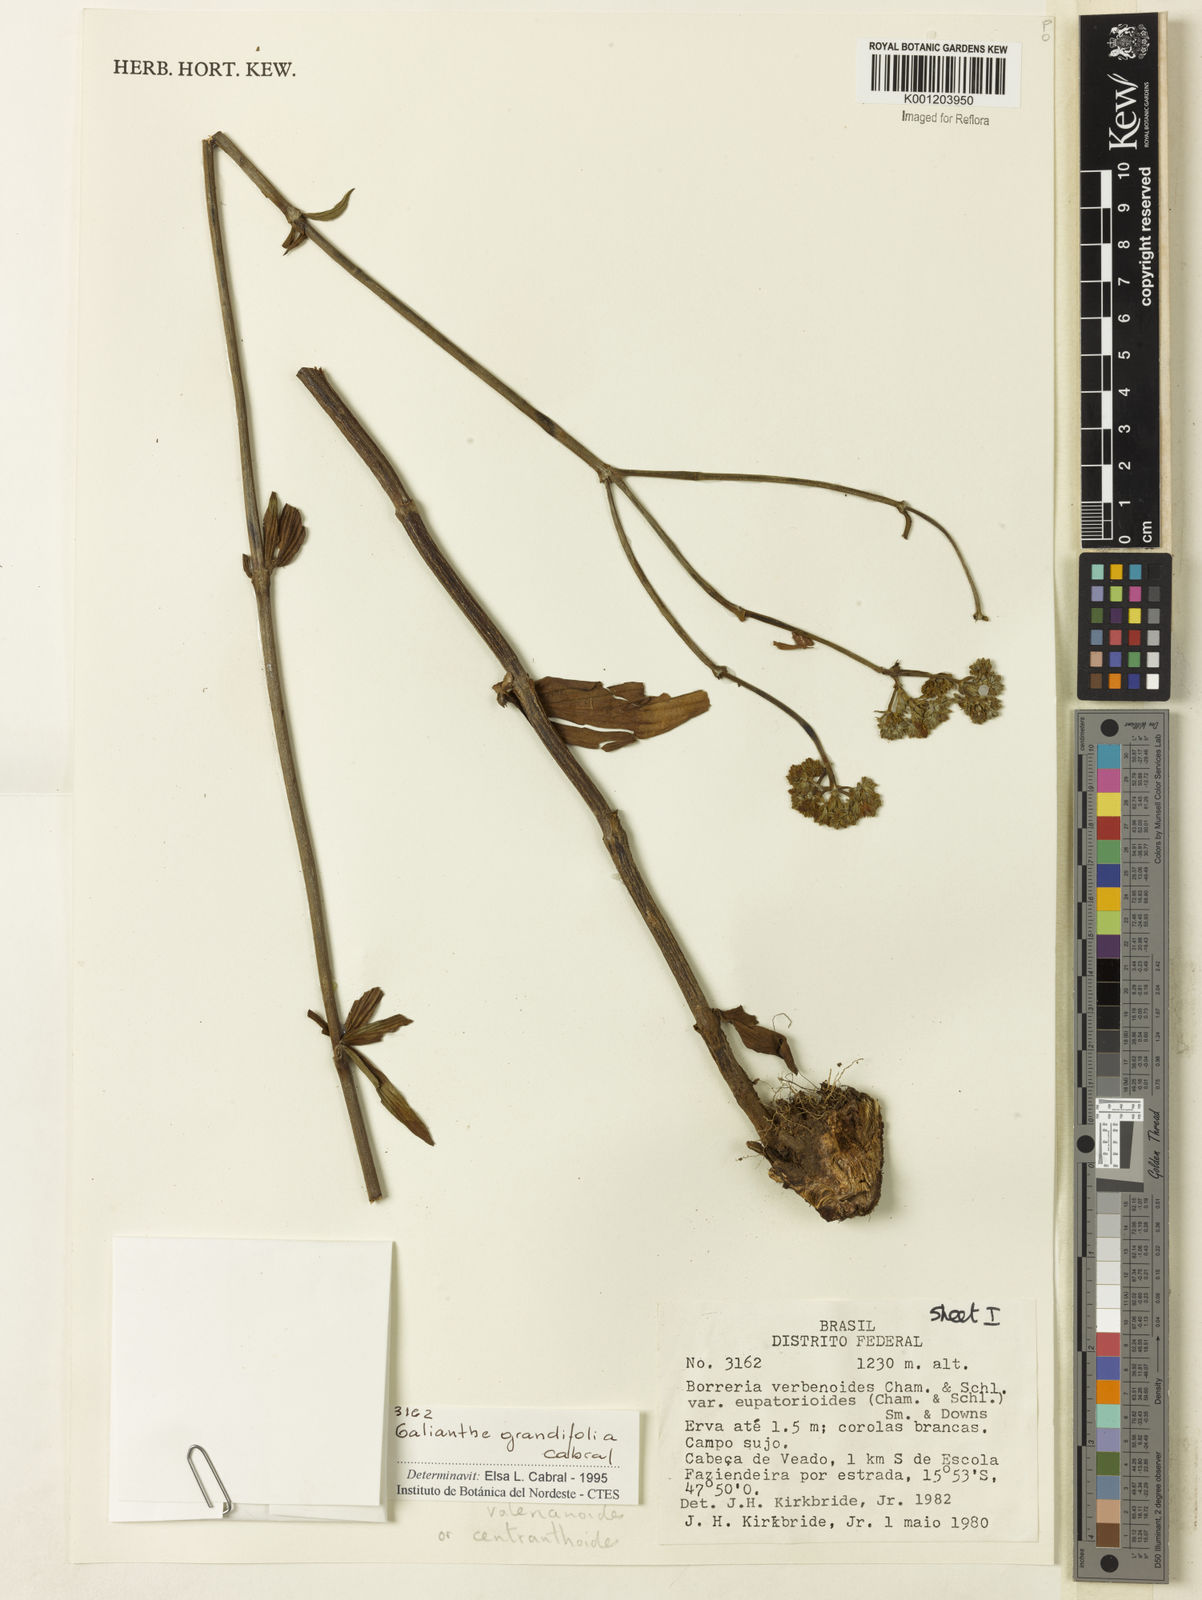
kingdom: Plantae
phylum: Tracheophyta
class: Magnoliopsida
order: Gentianales
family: Rubiaceae
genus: Galianthe
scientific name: Galianthe grandifolia
